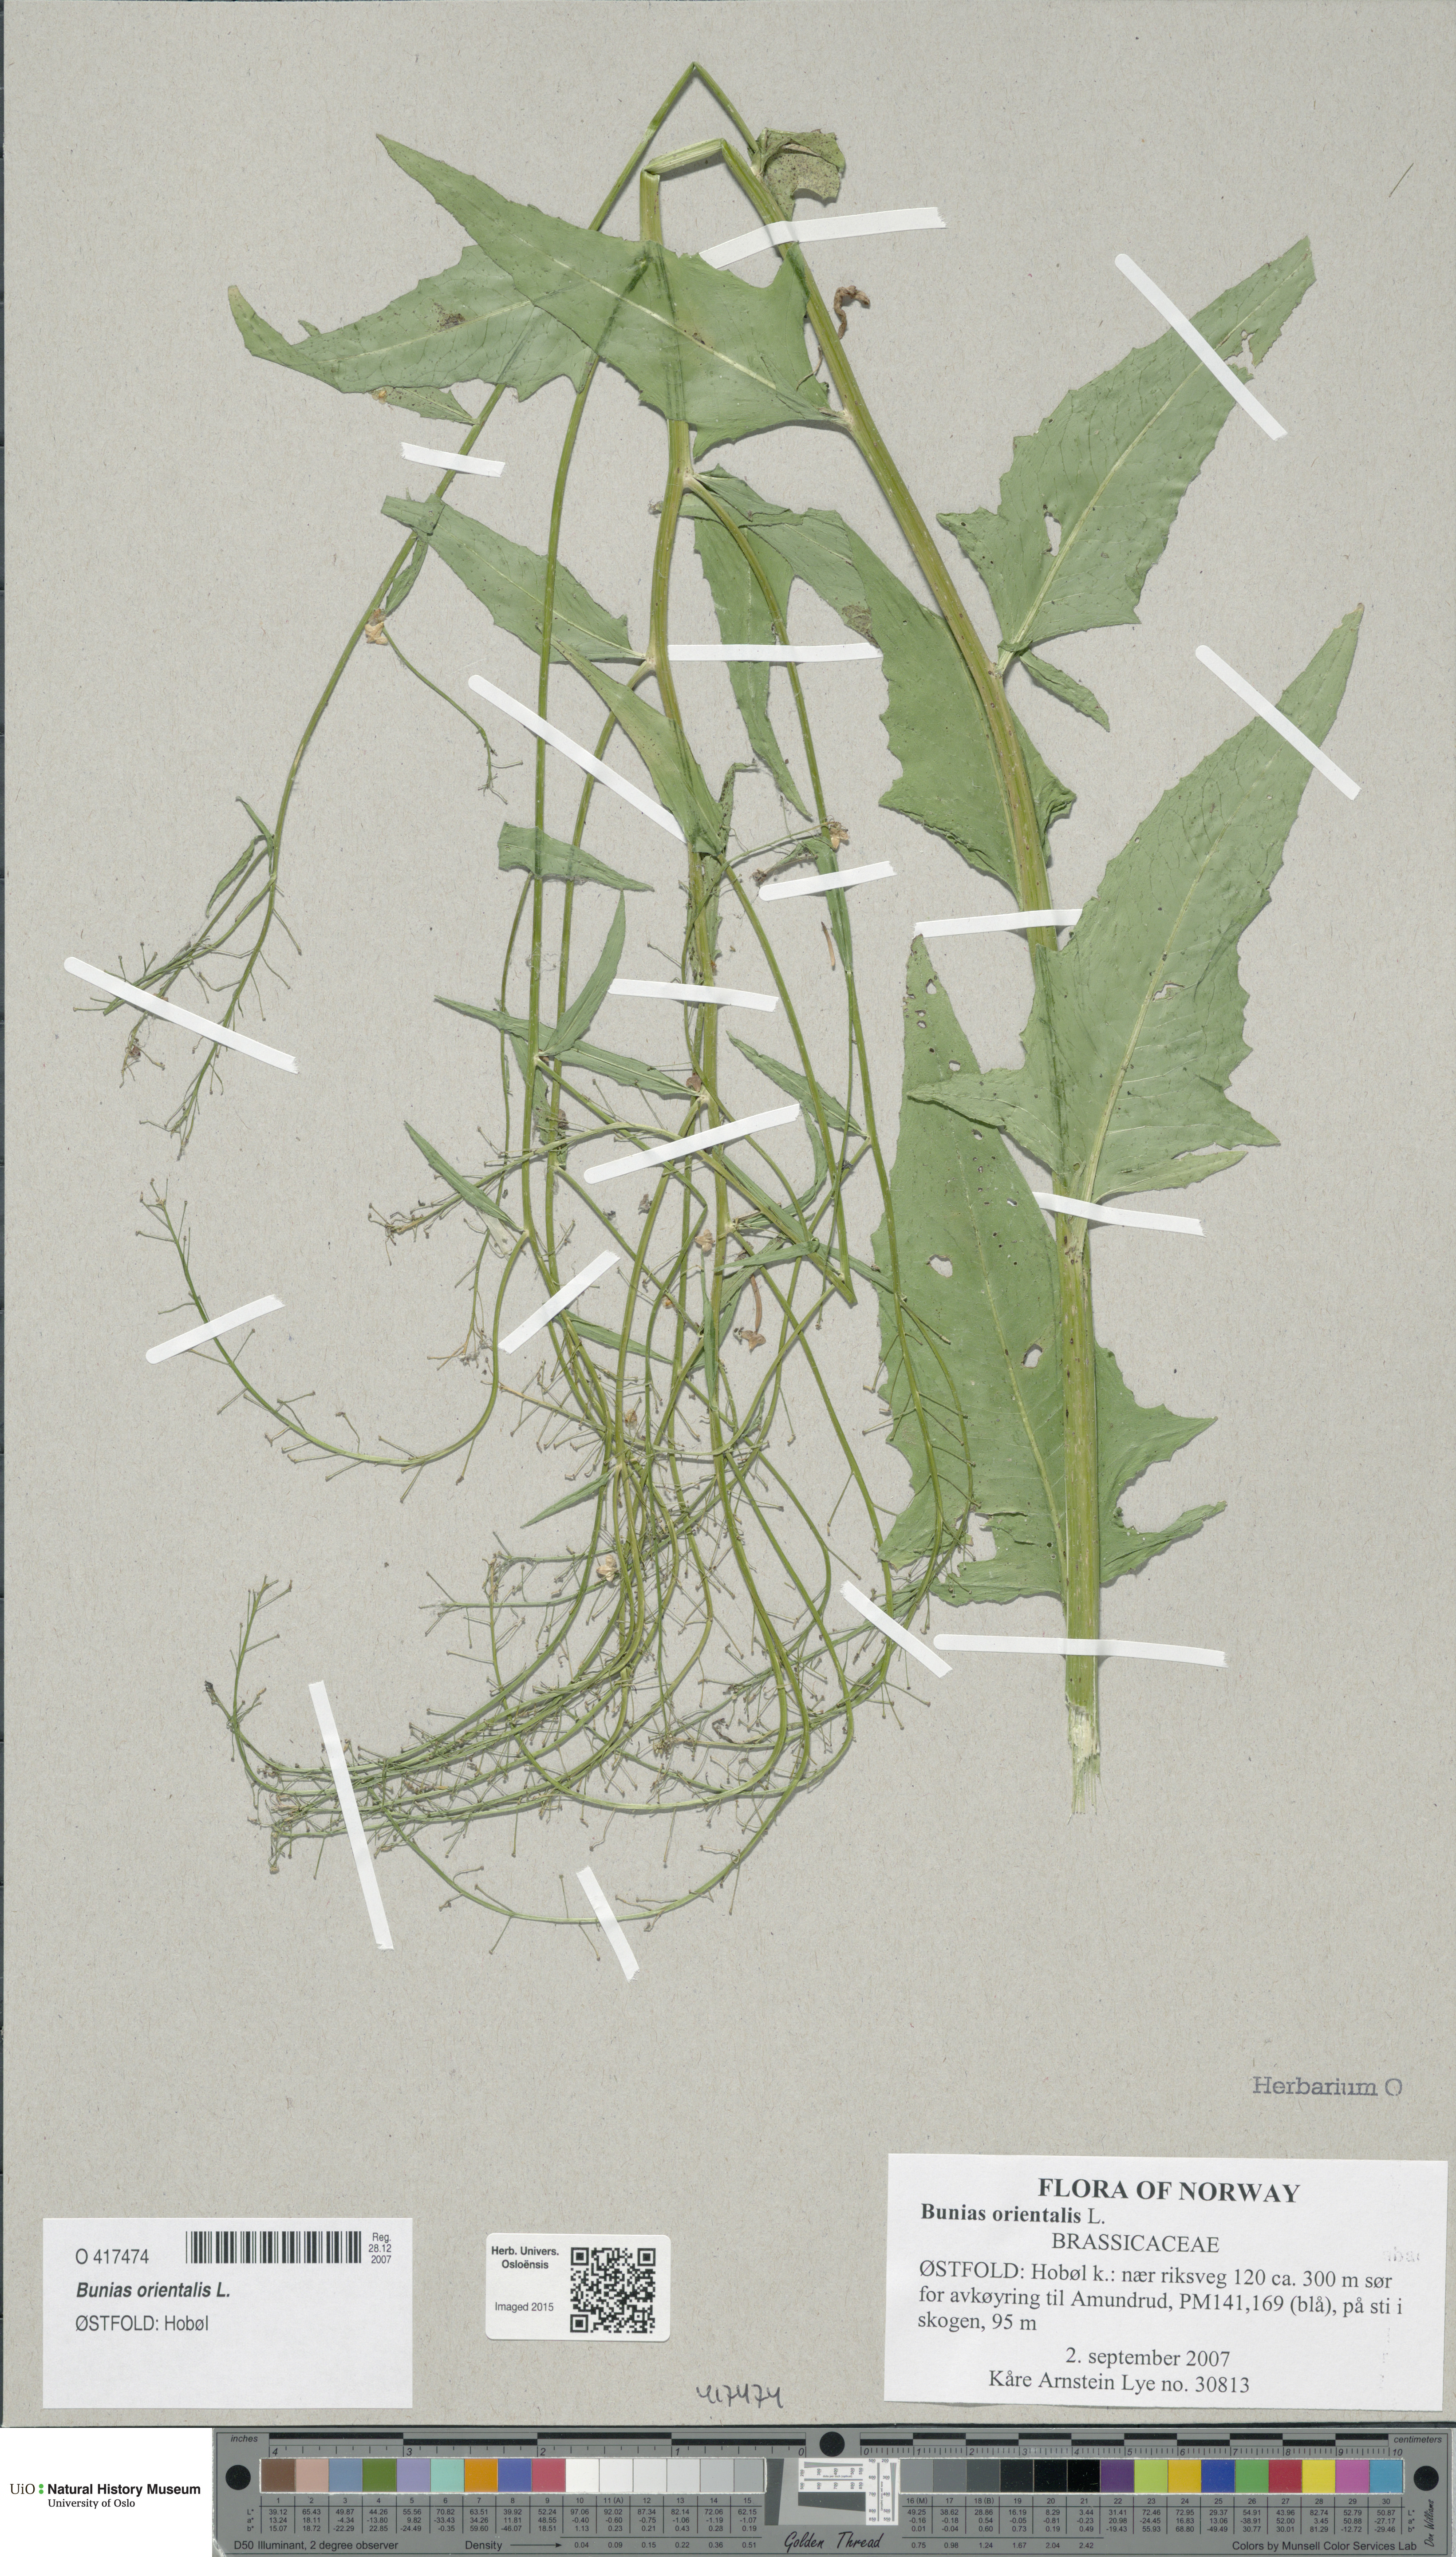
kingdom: Plantae
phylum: Tracheophyta
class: Magnoliopsida
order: Brassicales
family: Brassicaceae
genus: Bunias
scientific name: Bunias orientalis
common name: Warty-cabbage
